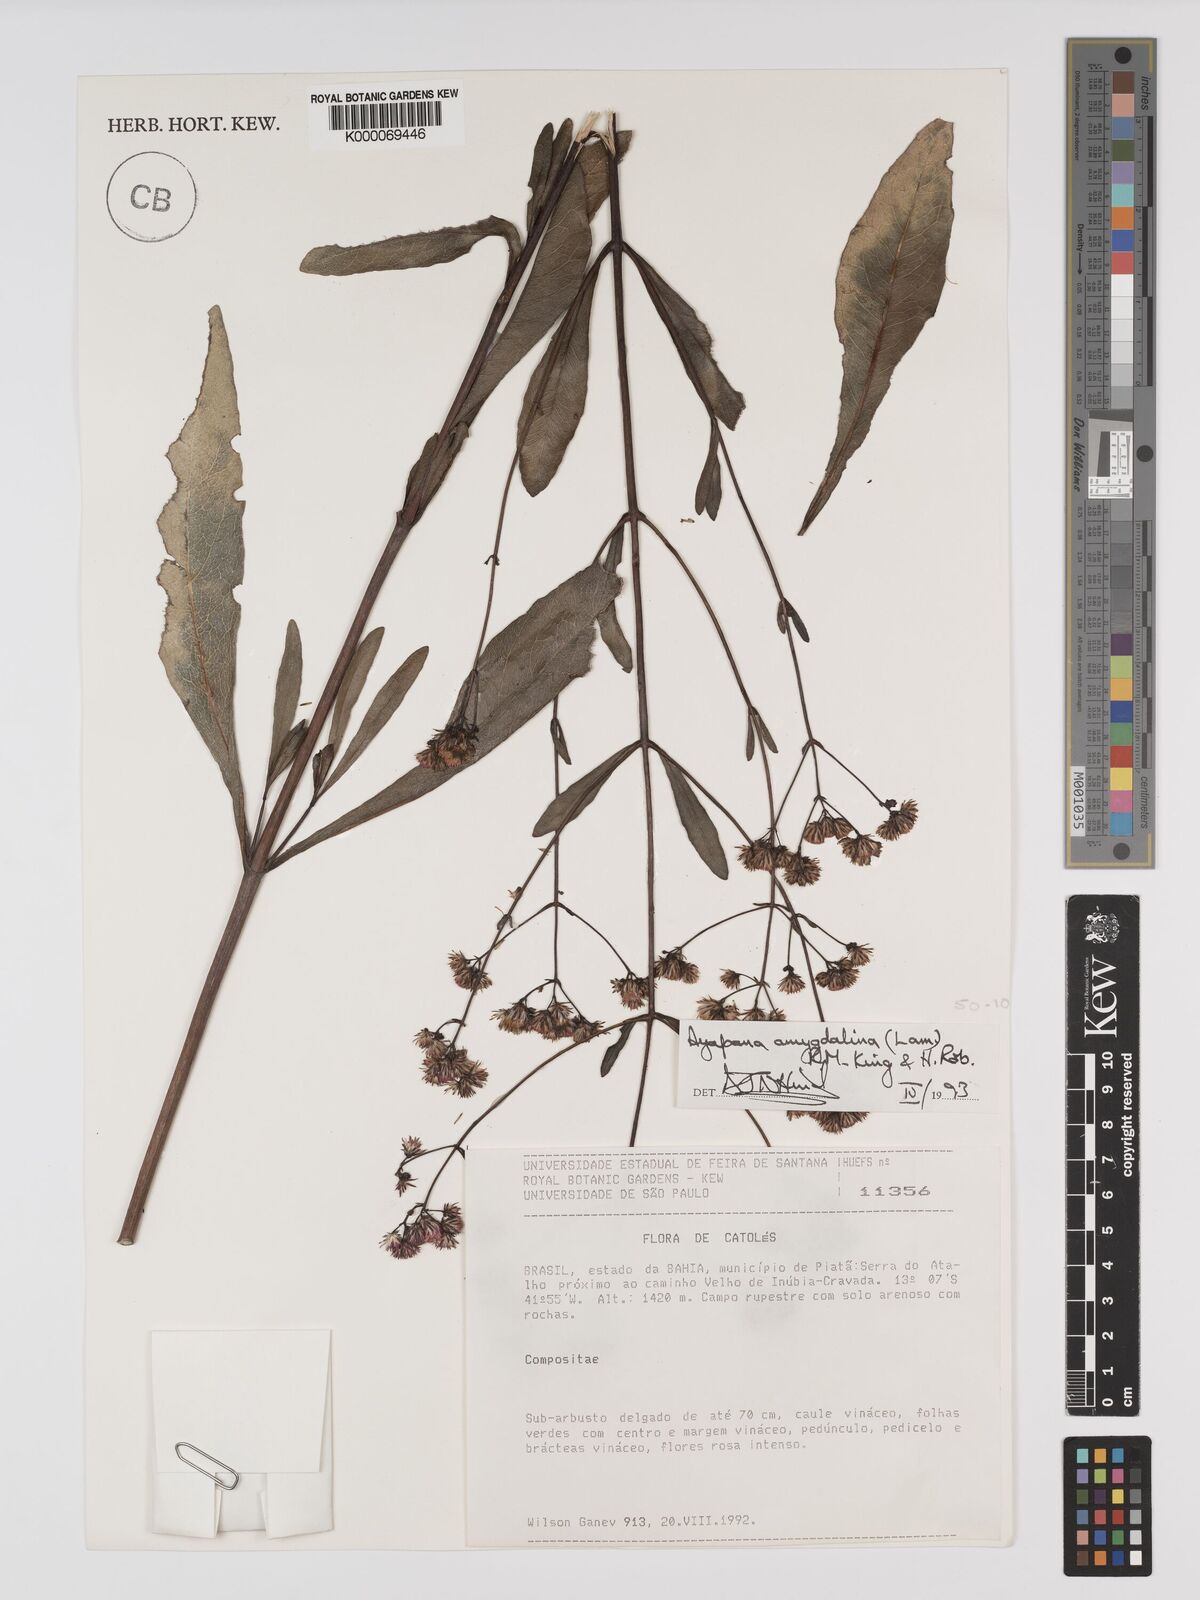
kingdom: Plantae
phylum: Tracheophyta
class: Magnoliopsida
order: Asterales
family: Asteraceae
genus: Ayapana
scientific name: Ayapana amygdalina
